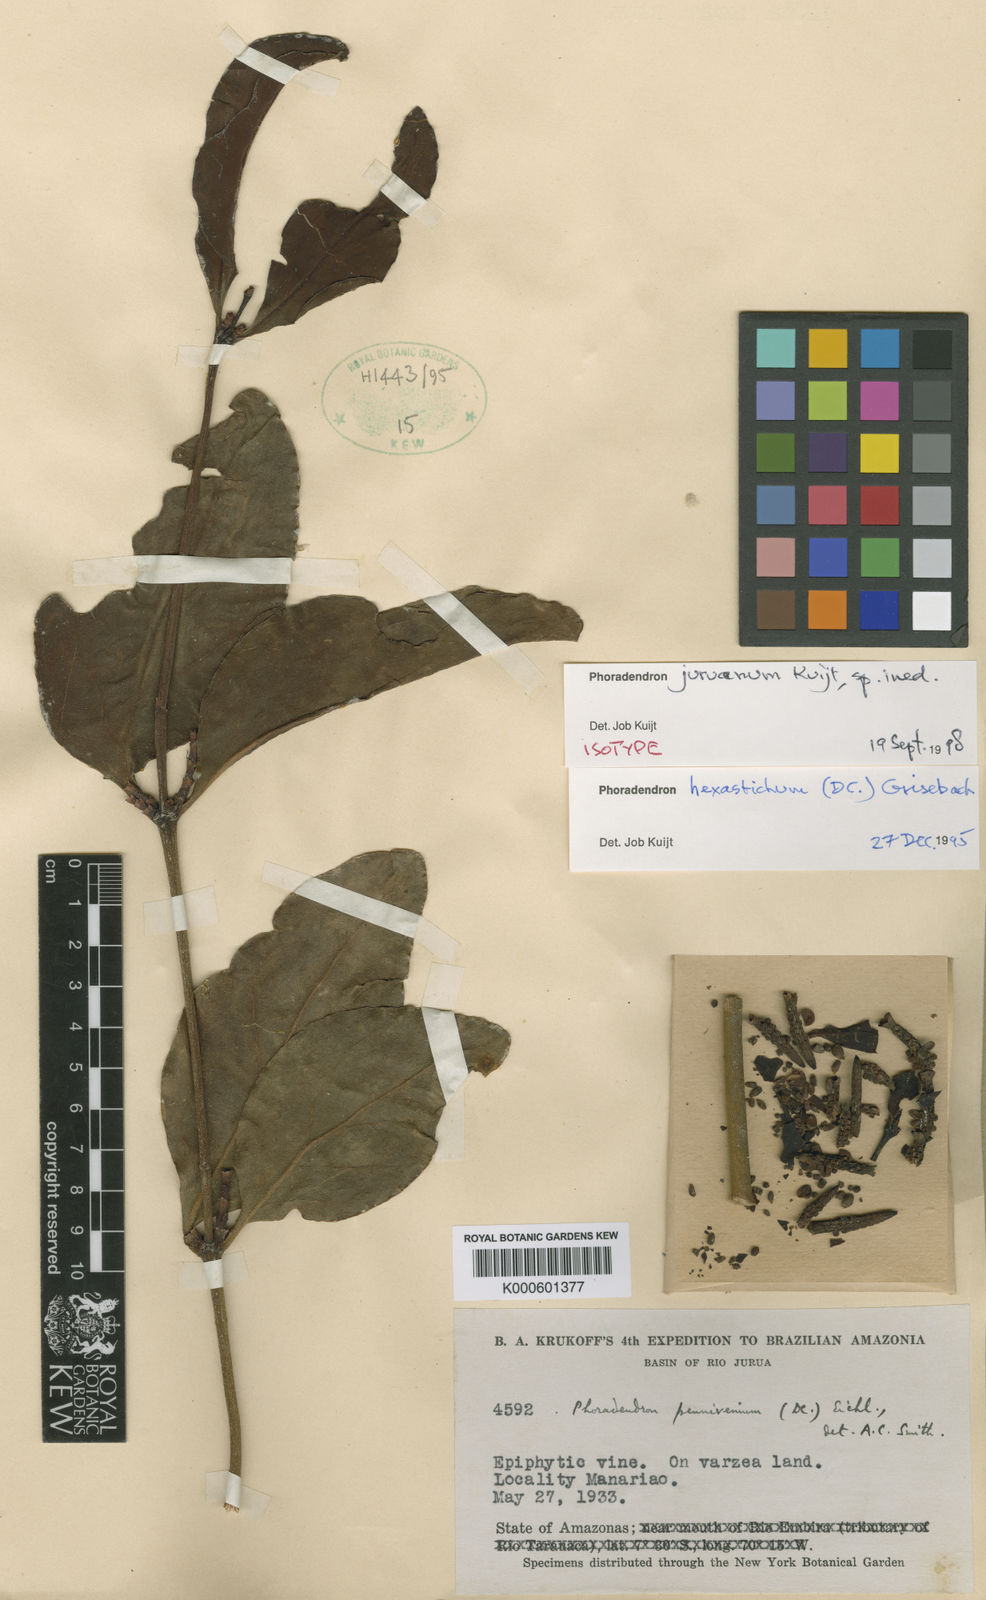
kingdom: Plantae
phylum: Tracheophyta
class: Magnoliopsida
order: Santalales
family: Viscaceae
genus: Phoradendron
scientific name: Phoradendron juruanum
